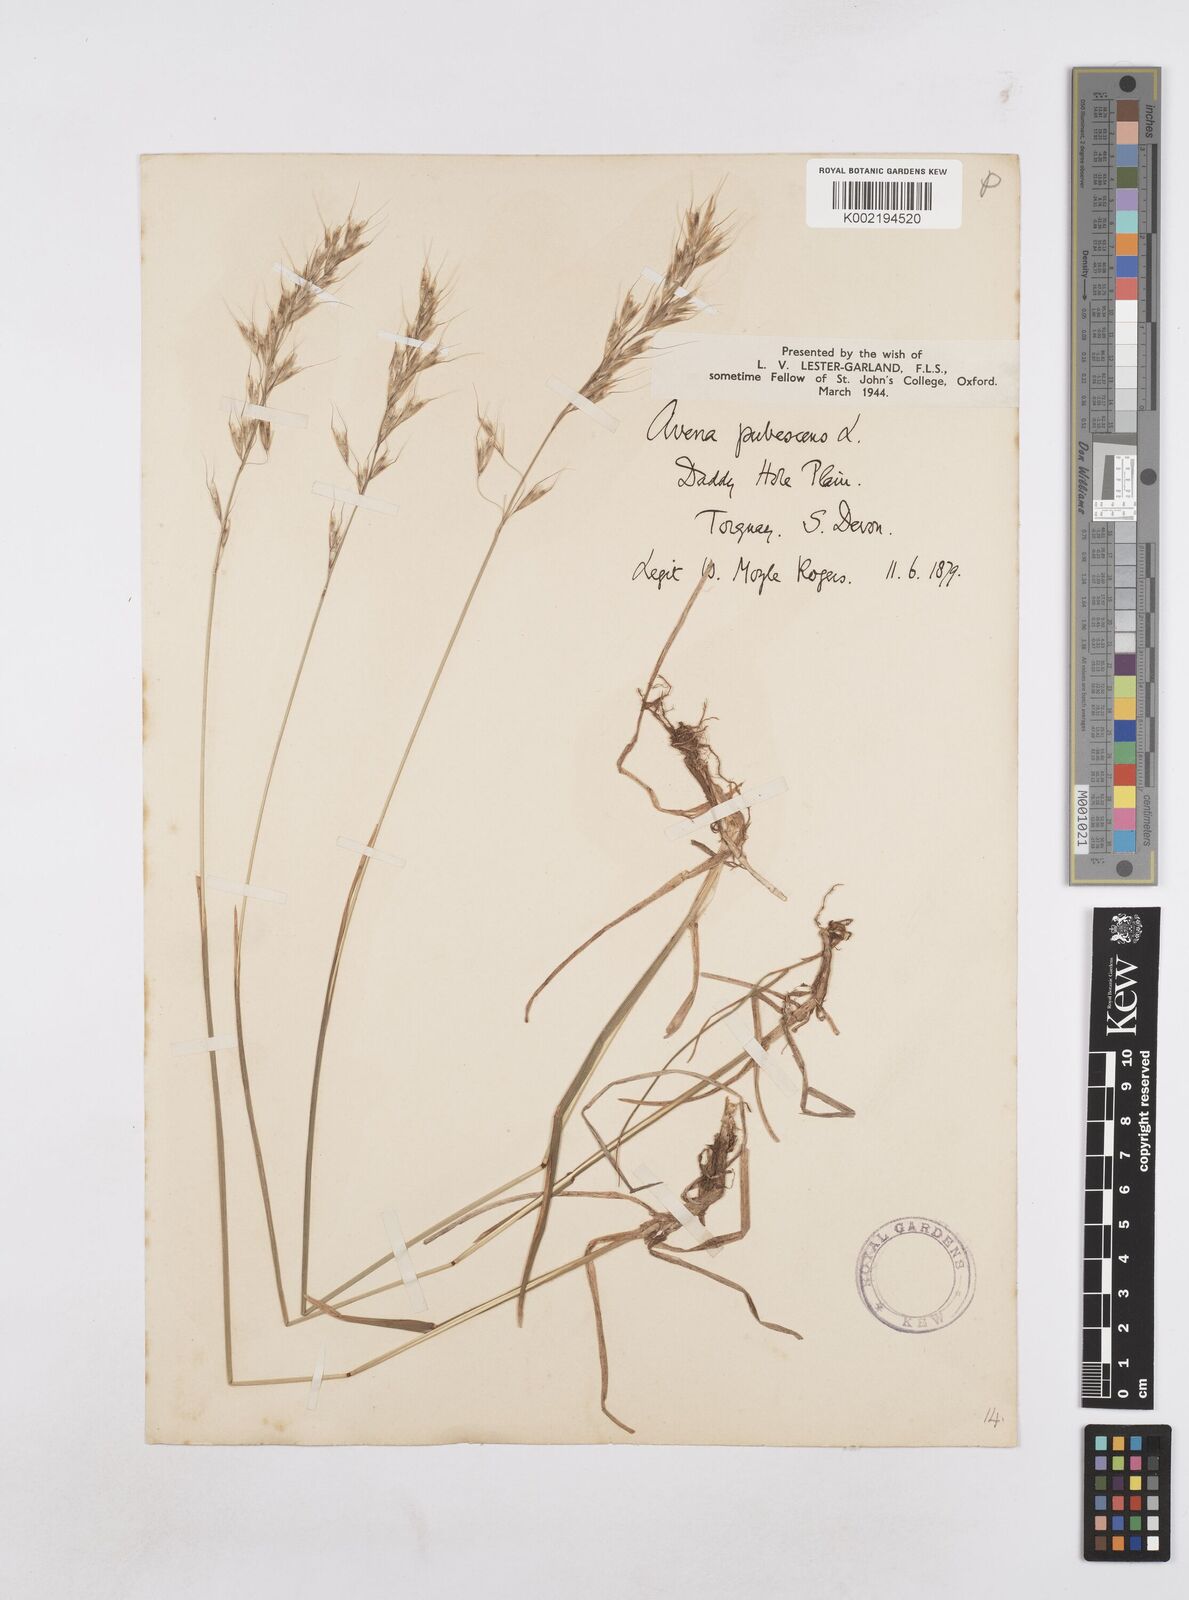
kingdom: Plantae
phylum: Tracheophyta
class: Liliopsida
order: Poales
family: Poaceae
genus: Avenula
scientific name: Avenula pubescens
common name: Downy alpine oatgrass
